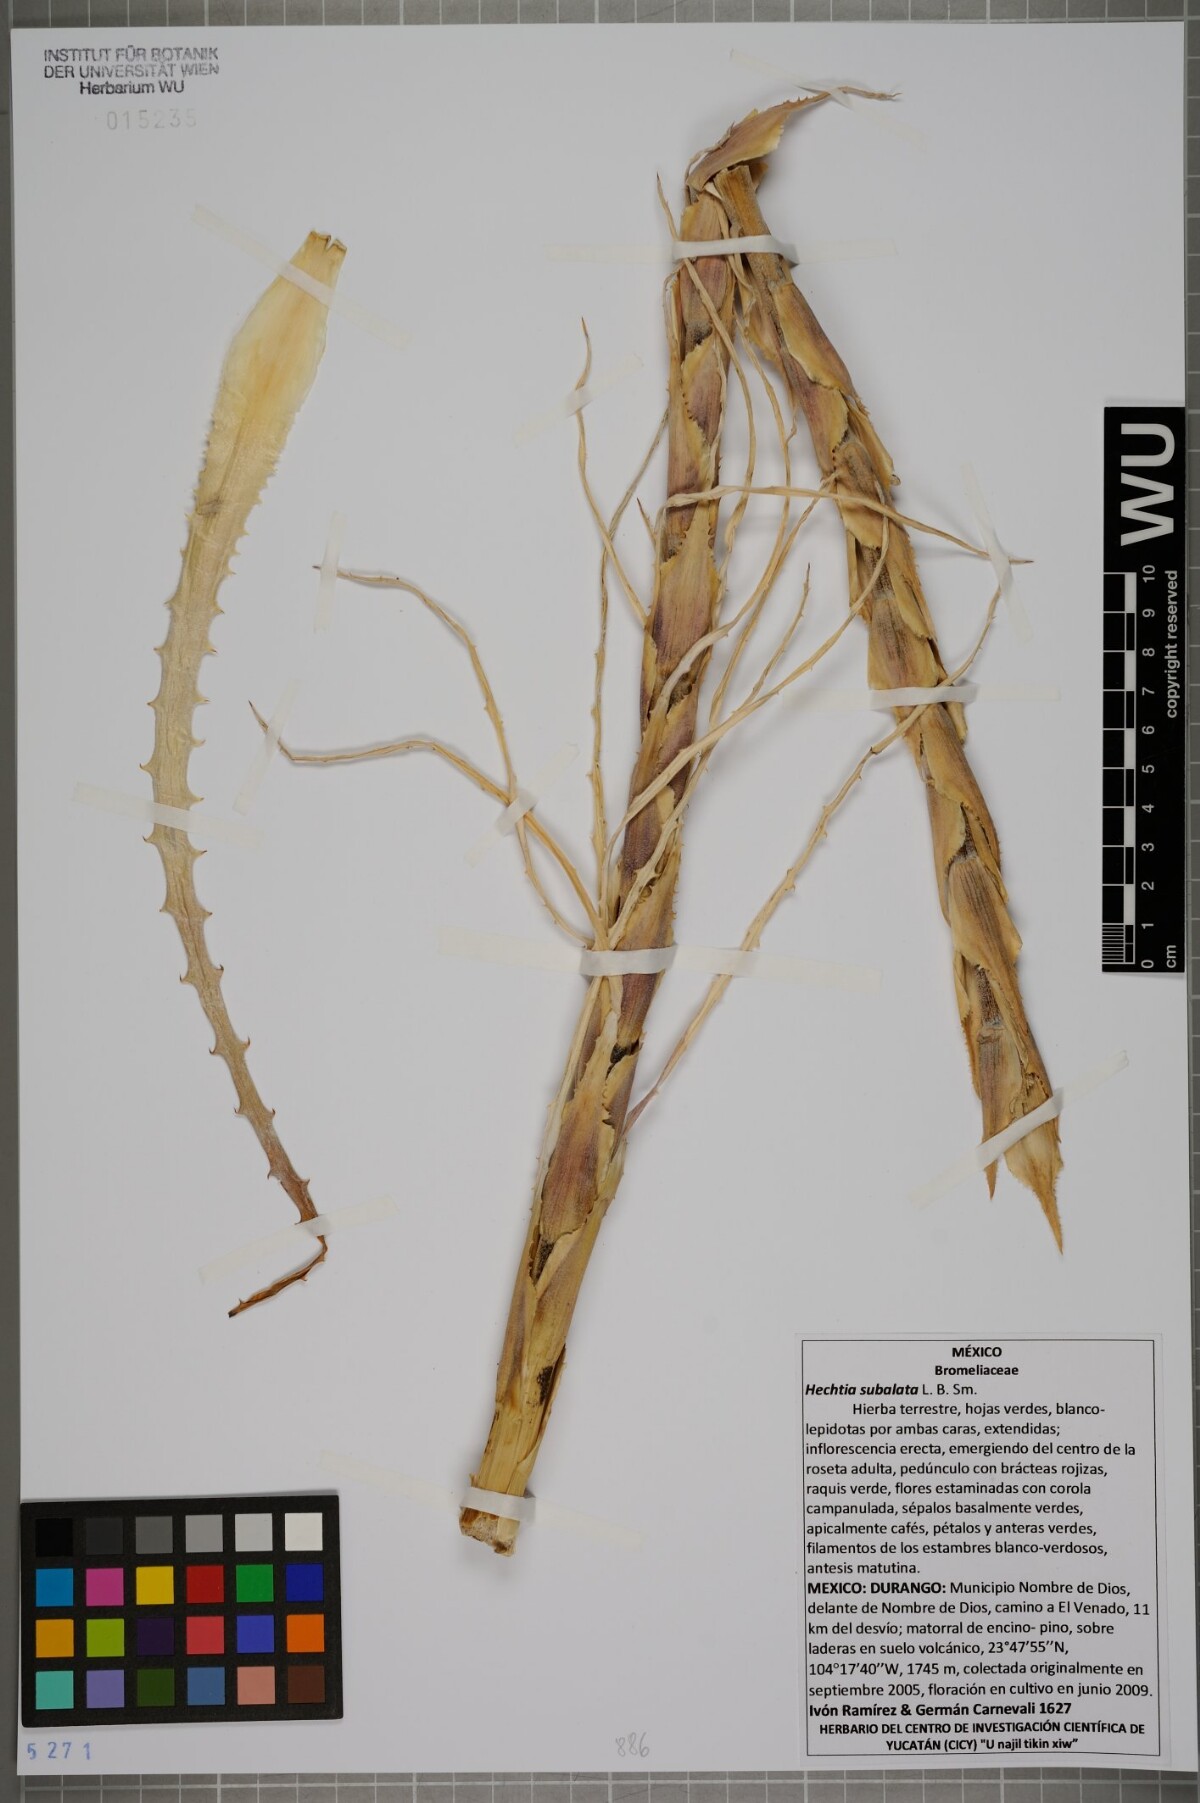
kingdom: Plantae
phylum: Tracheophyta
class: Liliopsida
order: Poales
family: Bromeliaceae
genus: Hechtia
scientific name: Hechtia subalata
